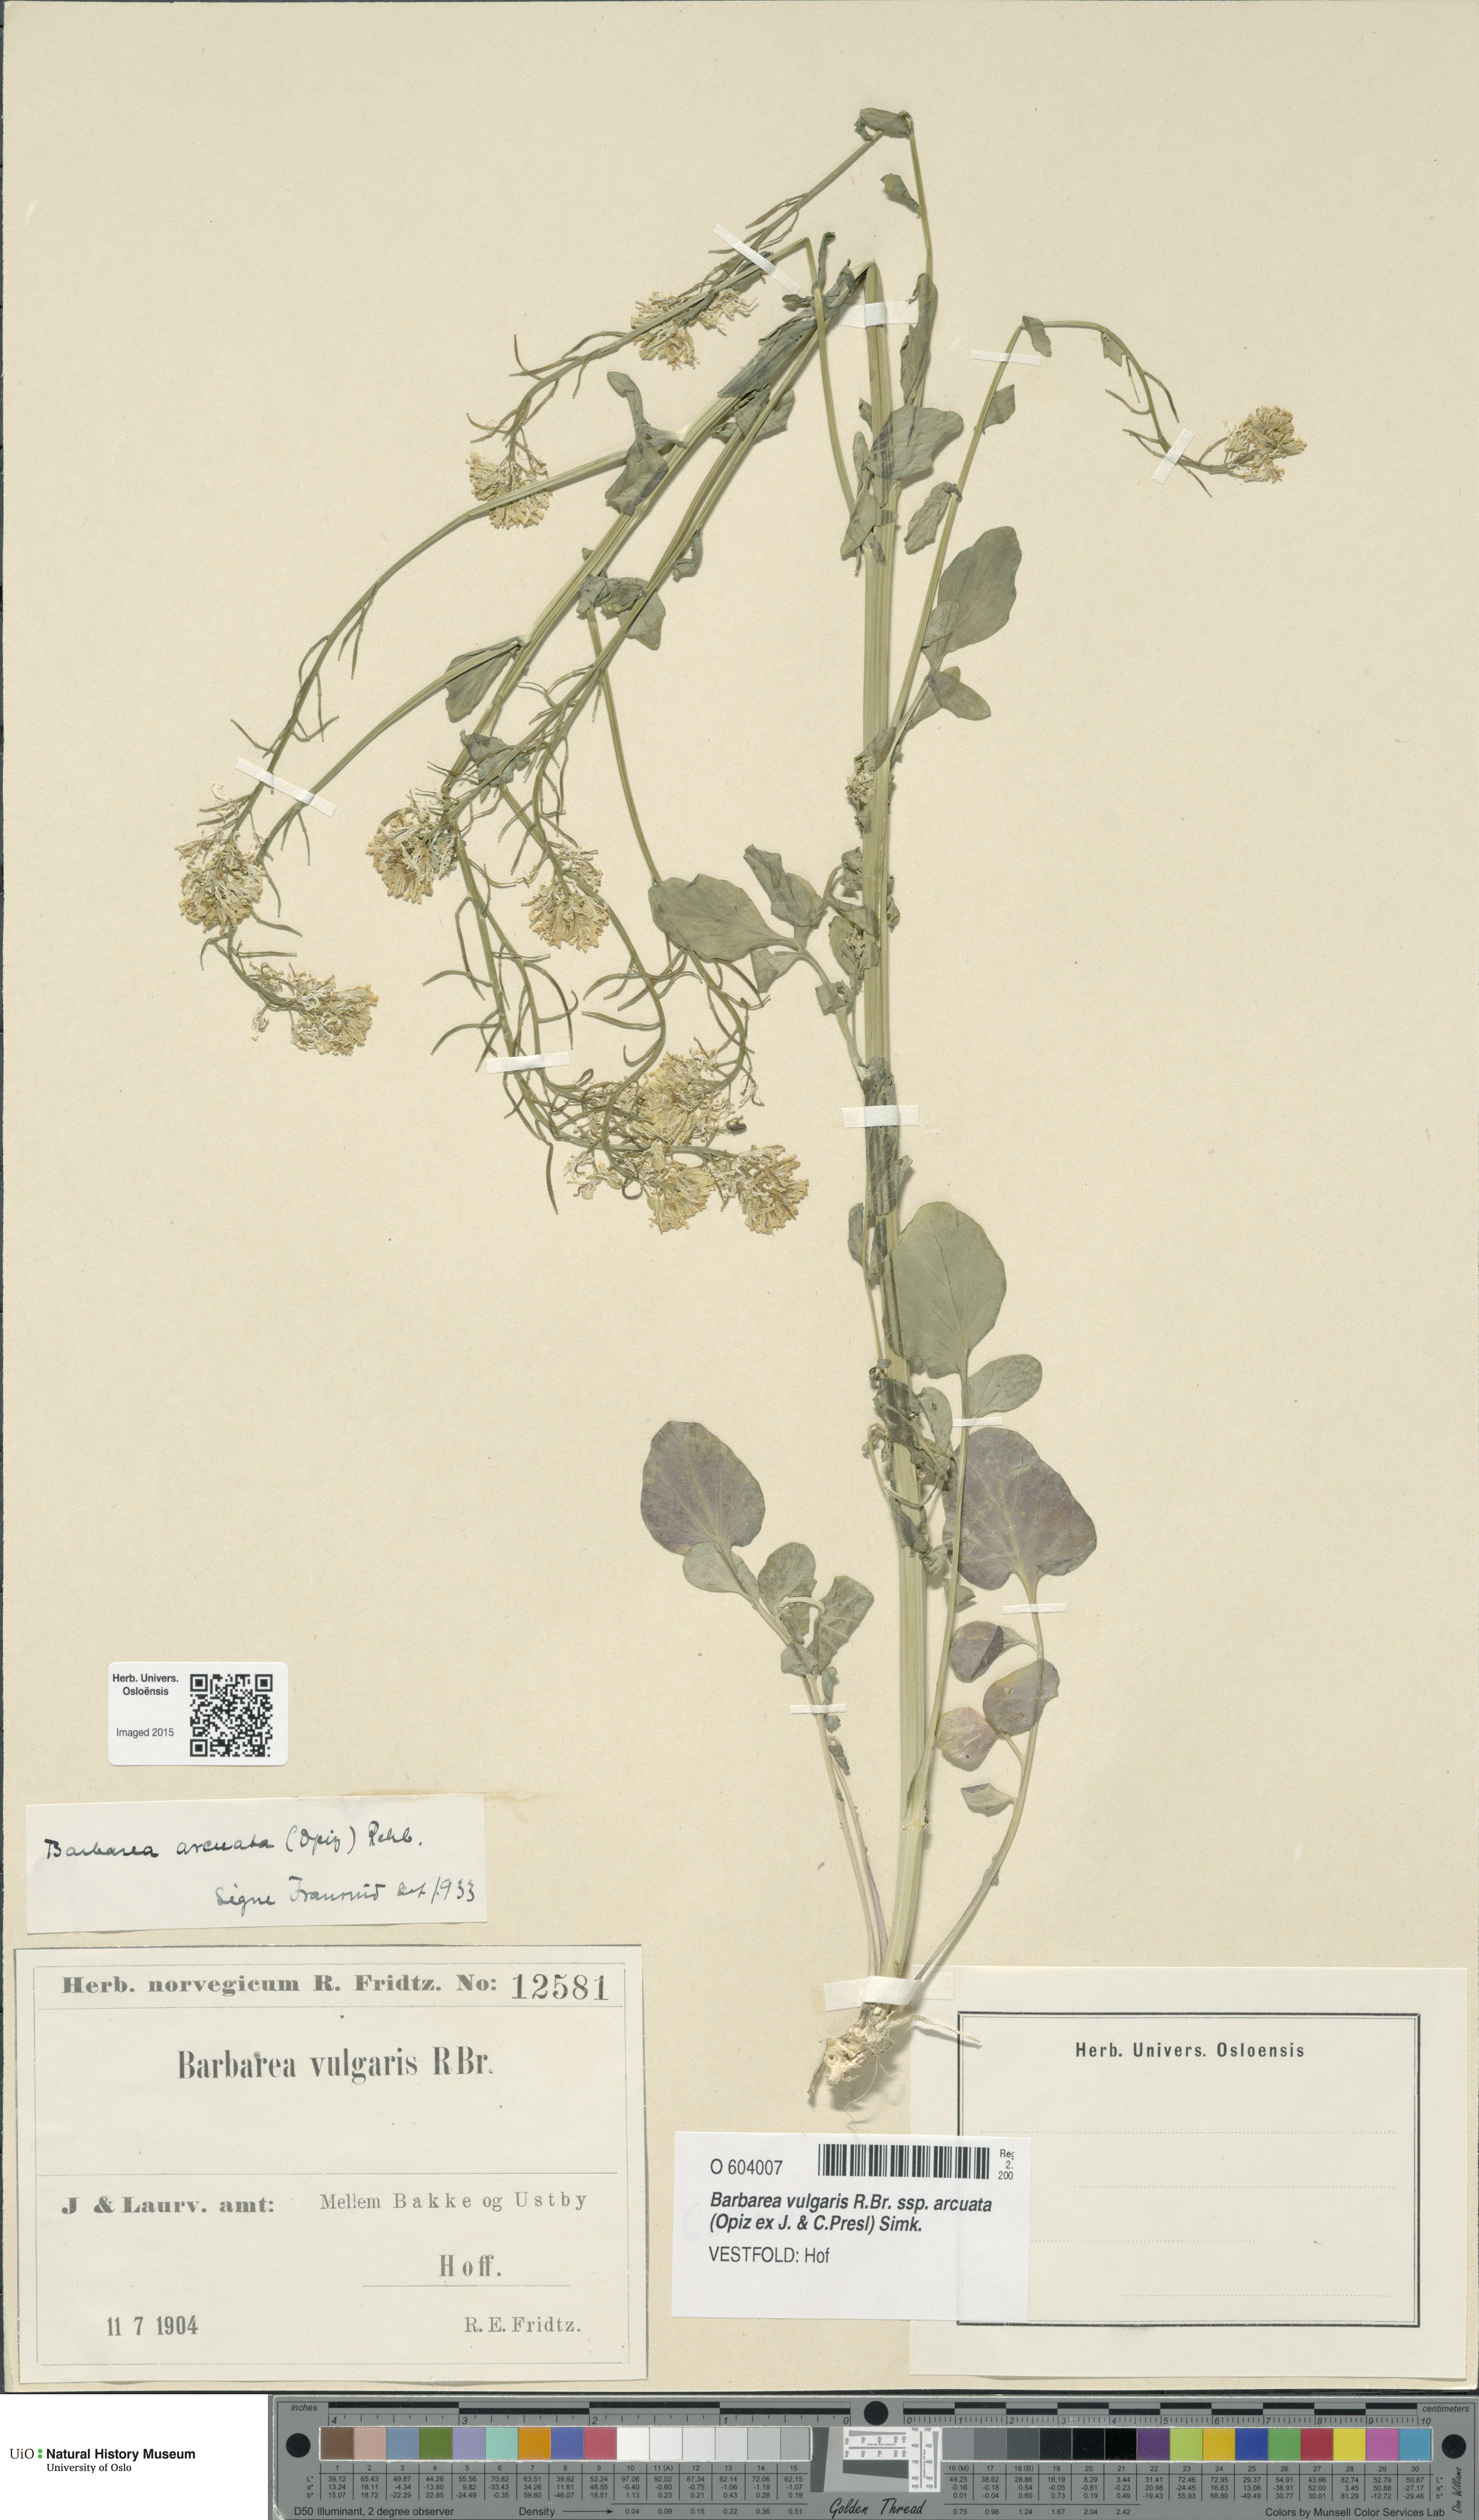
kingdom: Plantae
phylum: Tracheophyta
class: Magnoliopsida
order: Brassicales
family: Brassicaceae
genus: Barbarea
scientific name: Barbarea vulgaris
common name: Cressy-greens
